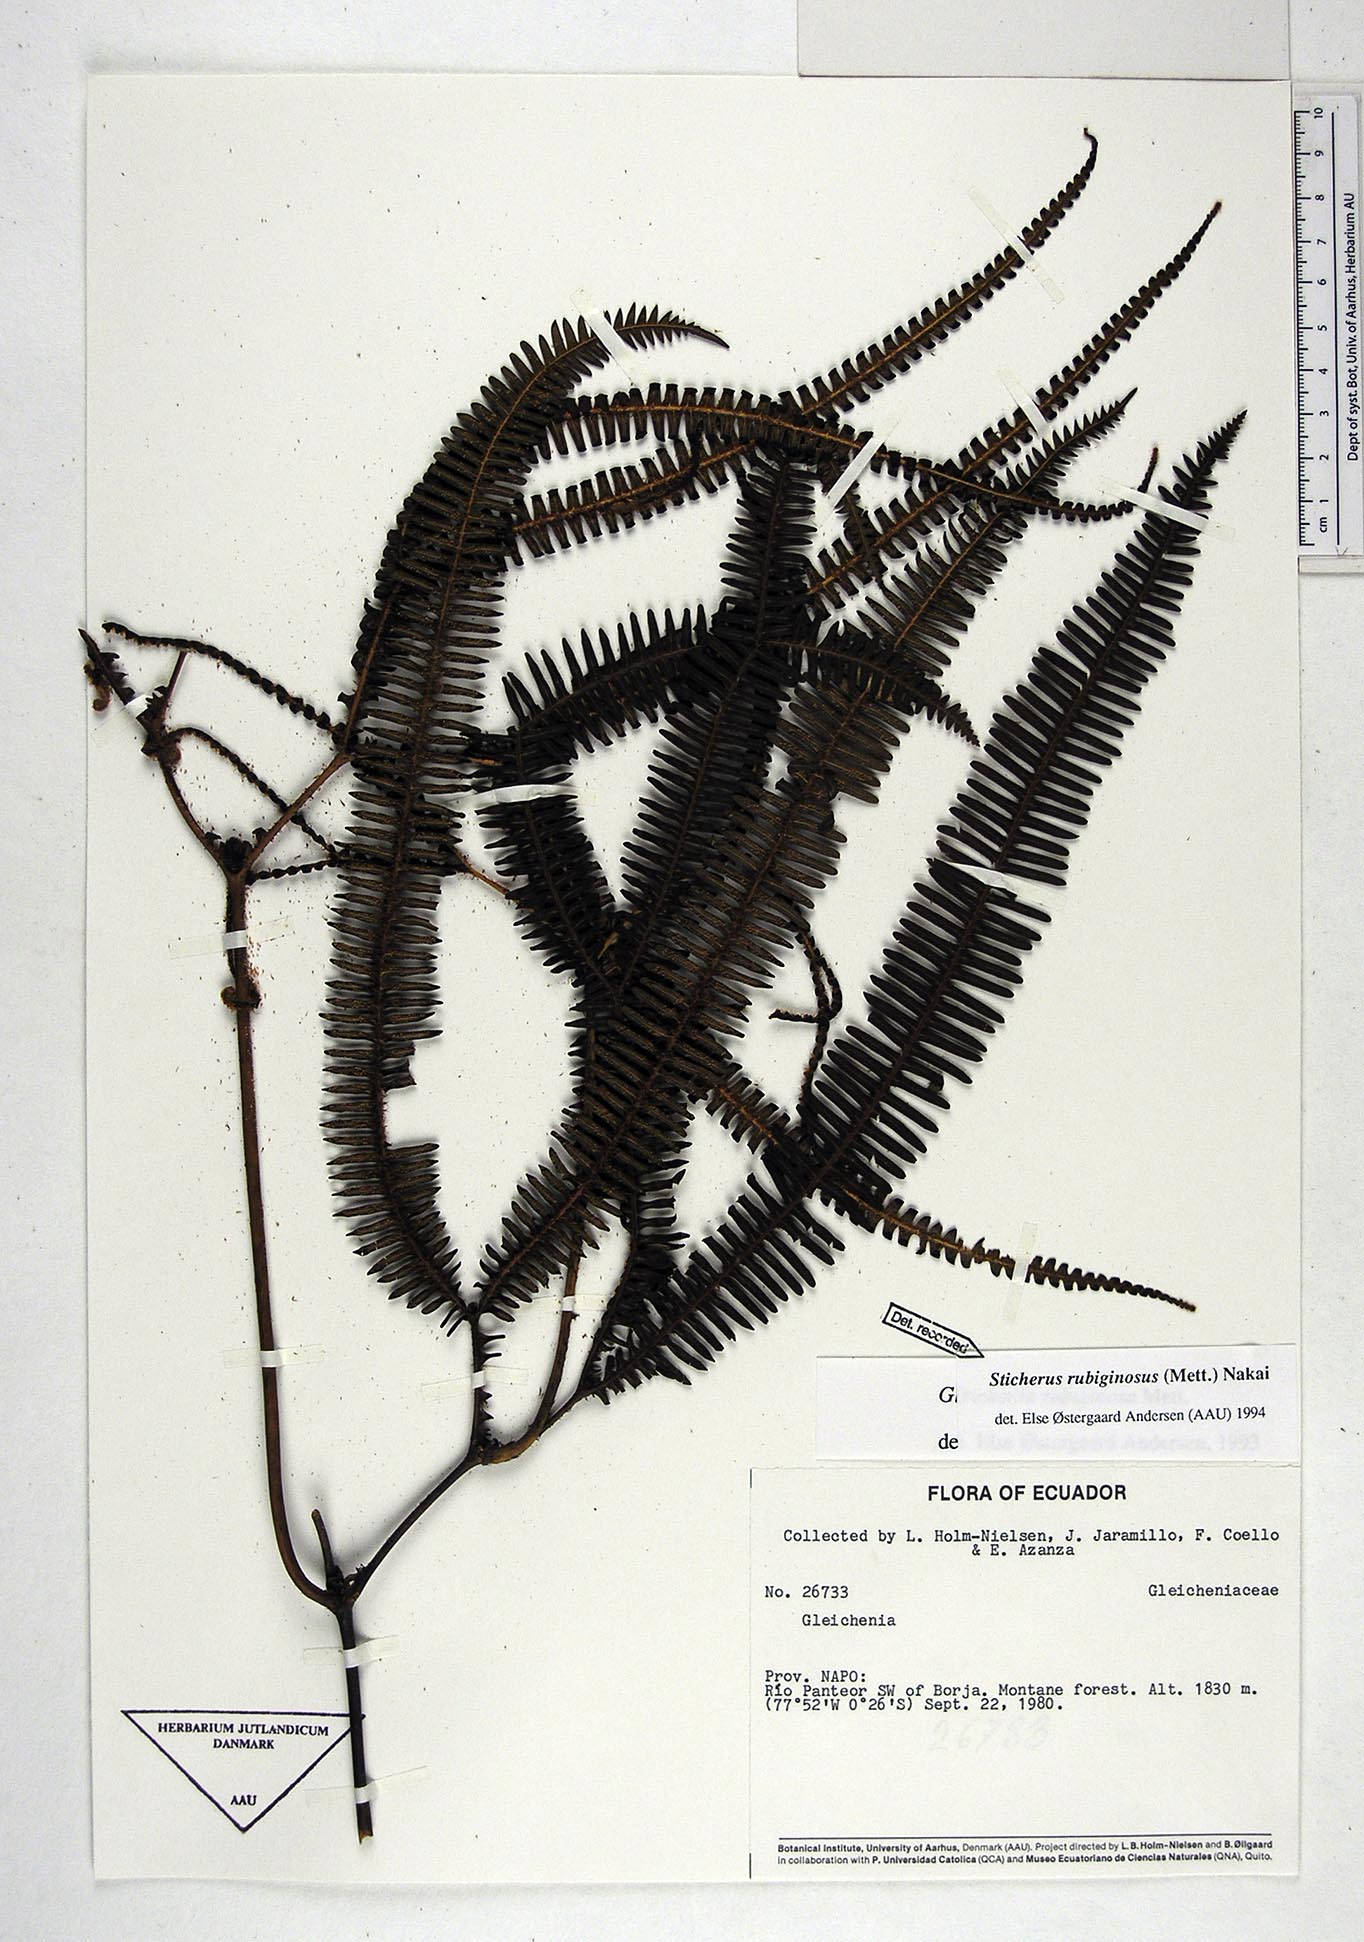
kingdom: Plantae
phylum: Tracheophyta
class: Polypodiopsida
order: Gleicheniales
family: Gleicheniaceae
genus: Sticherus
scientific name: Sticherus rubiginosus
